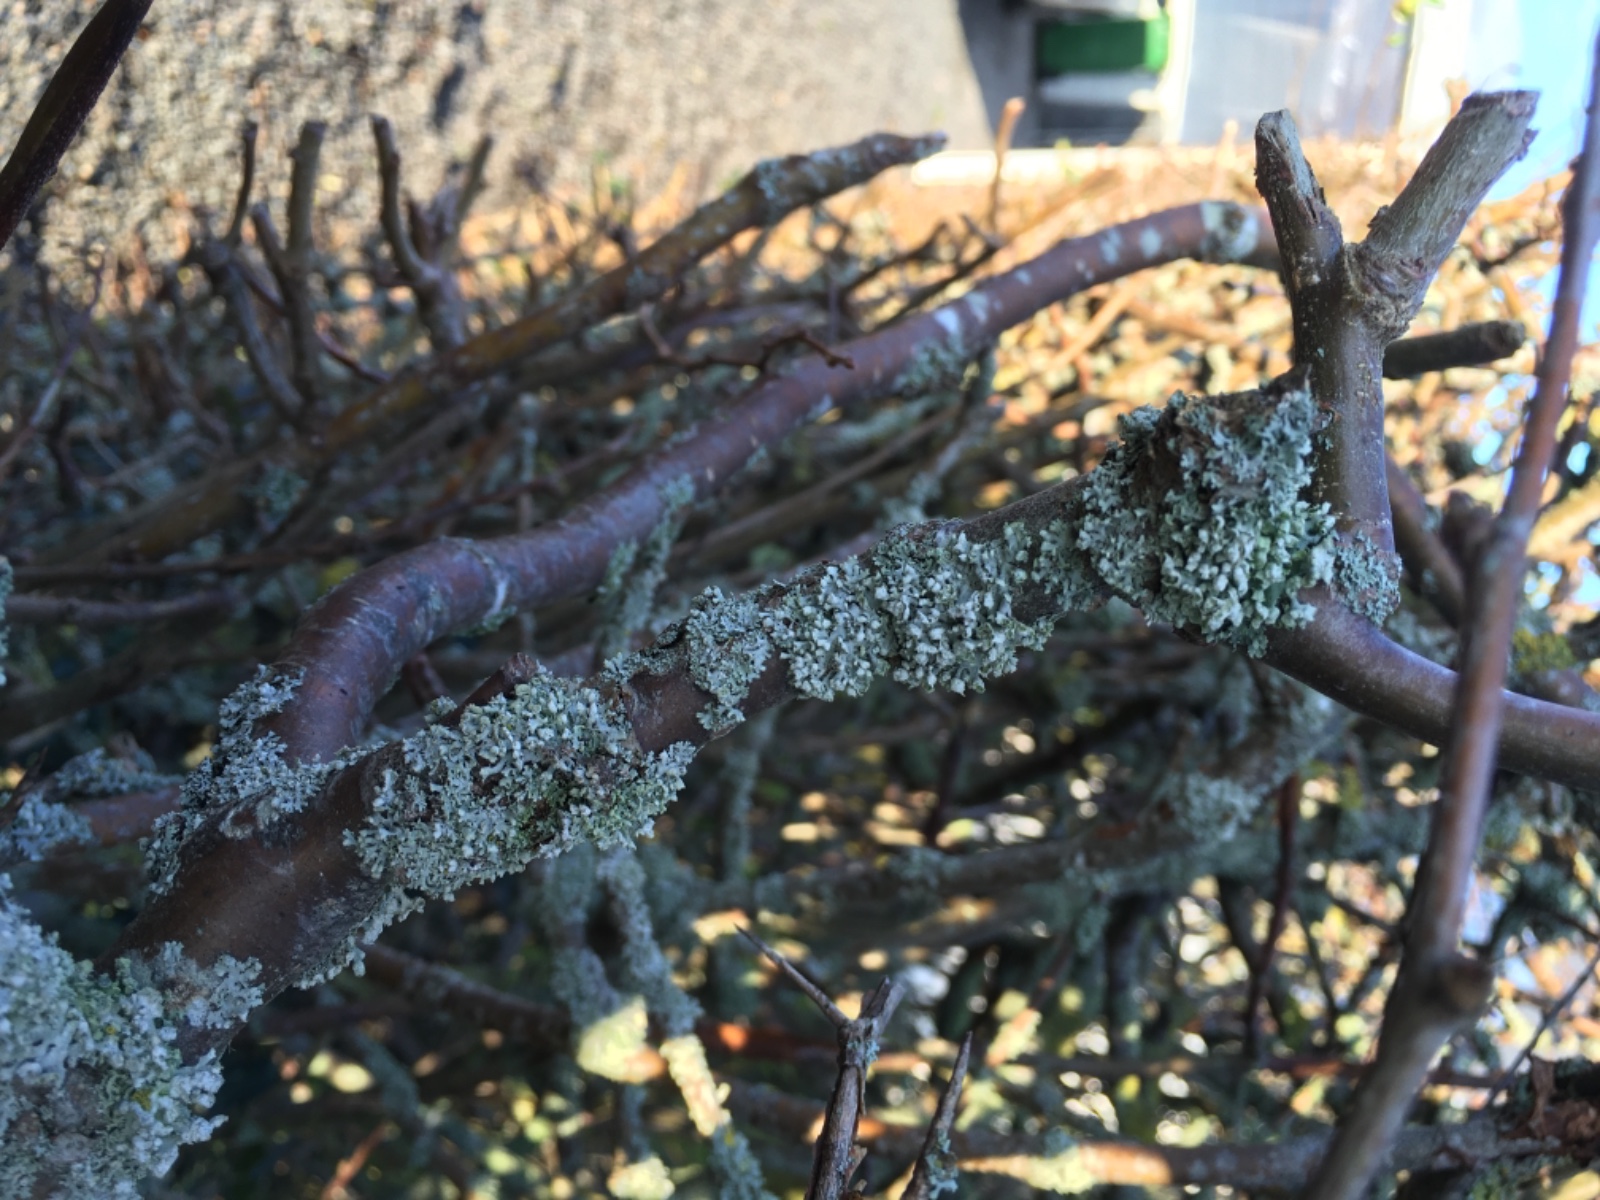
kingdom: Fungi
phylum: Ascomycota
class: Lecanoromycetes
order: Caliciales
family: Physciaceae
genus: Physcia
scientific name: Physcia adscendens
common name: hætte-rosetlav
